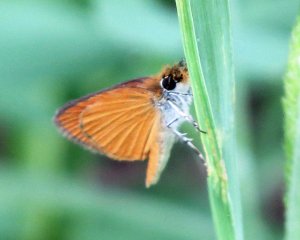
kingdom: Animalia
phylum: Arthropoda
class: Insecta
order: Lepidoptera
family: Hesperiidae
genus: Ancyloxypha
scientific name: Ancyloxypha numitor
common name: Least Skipper
